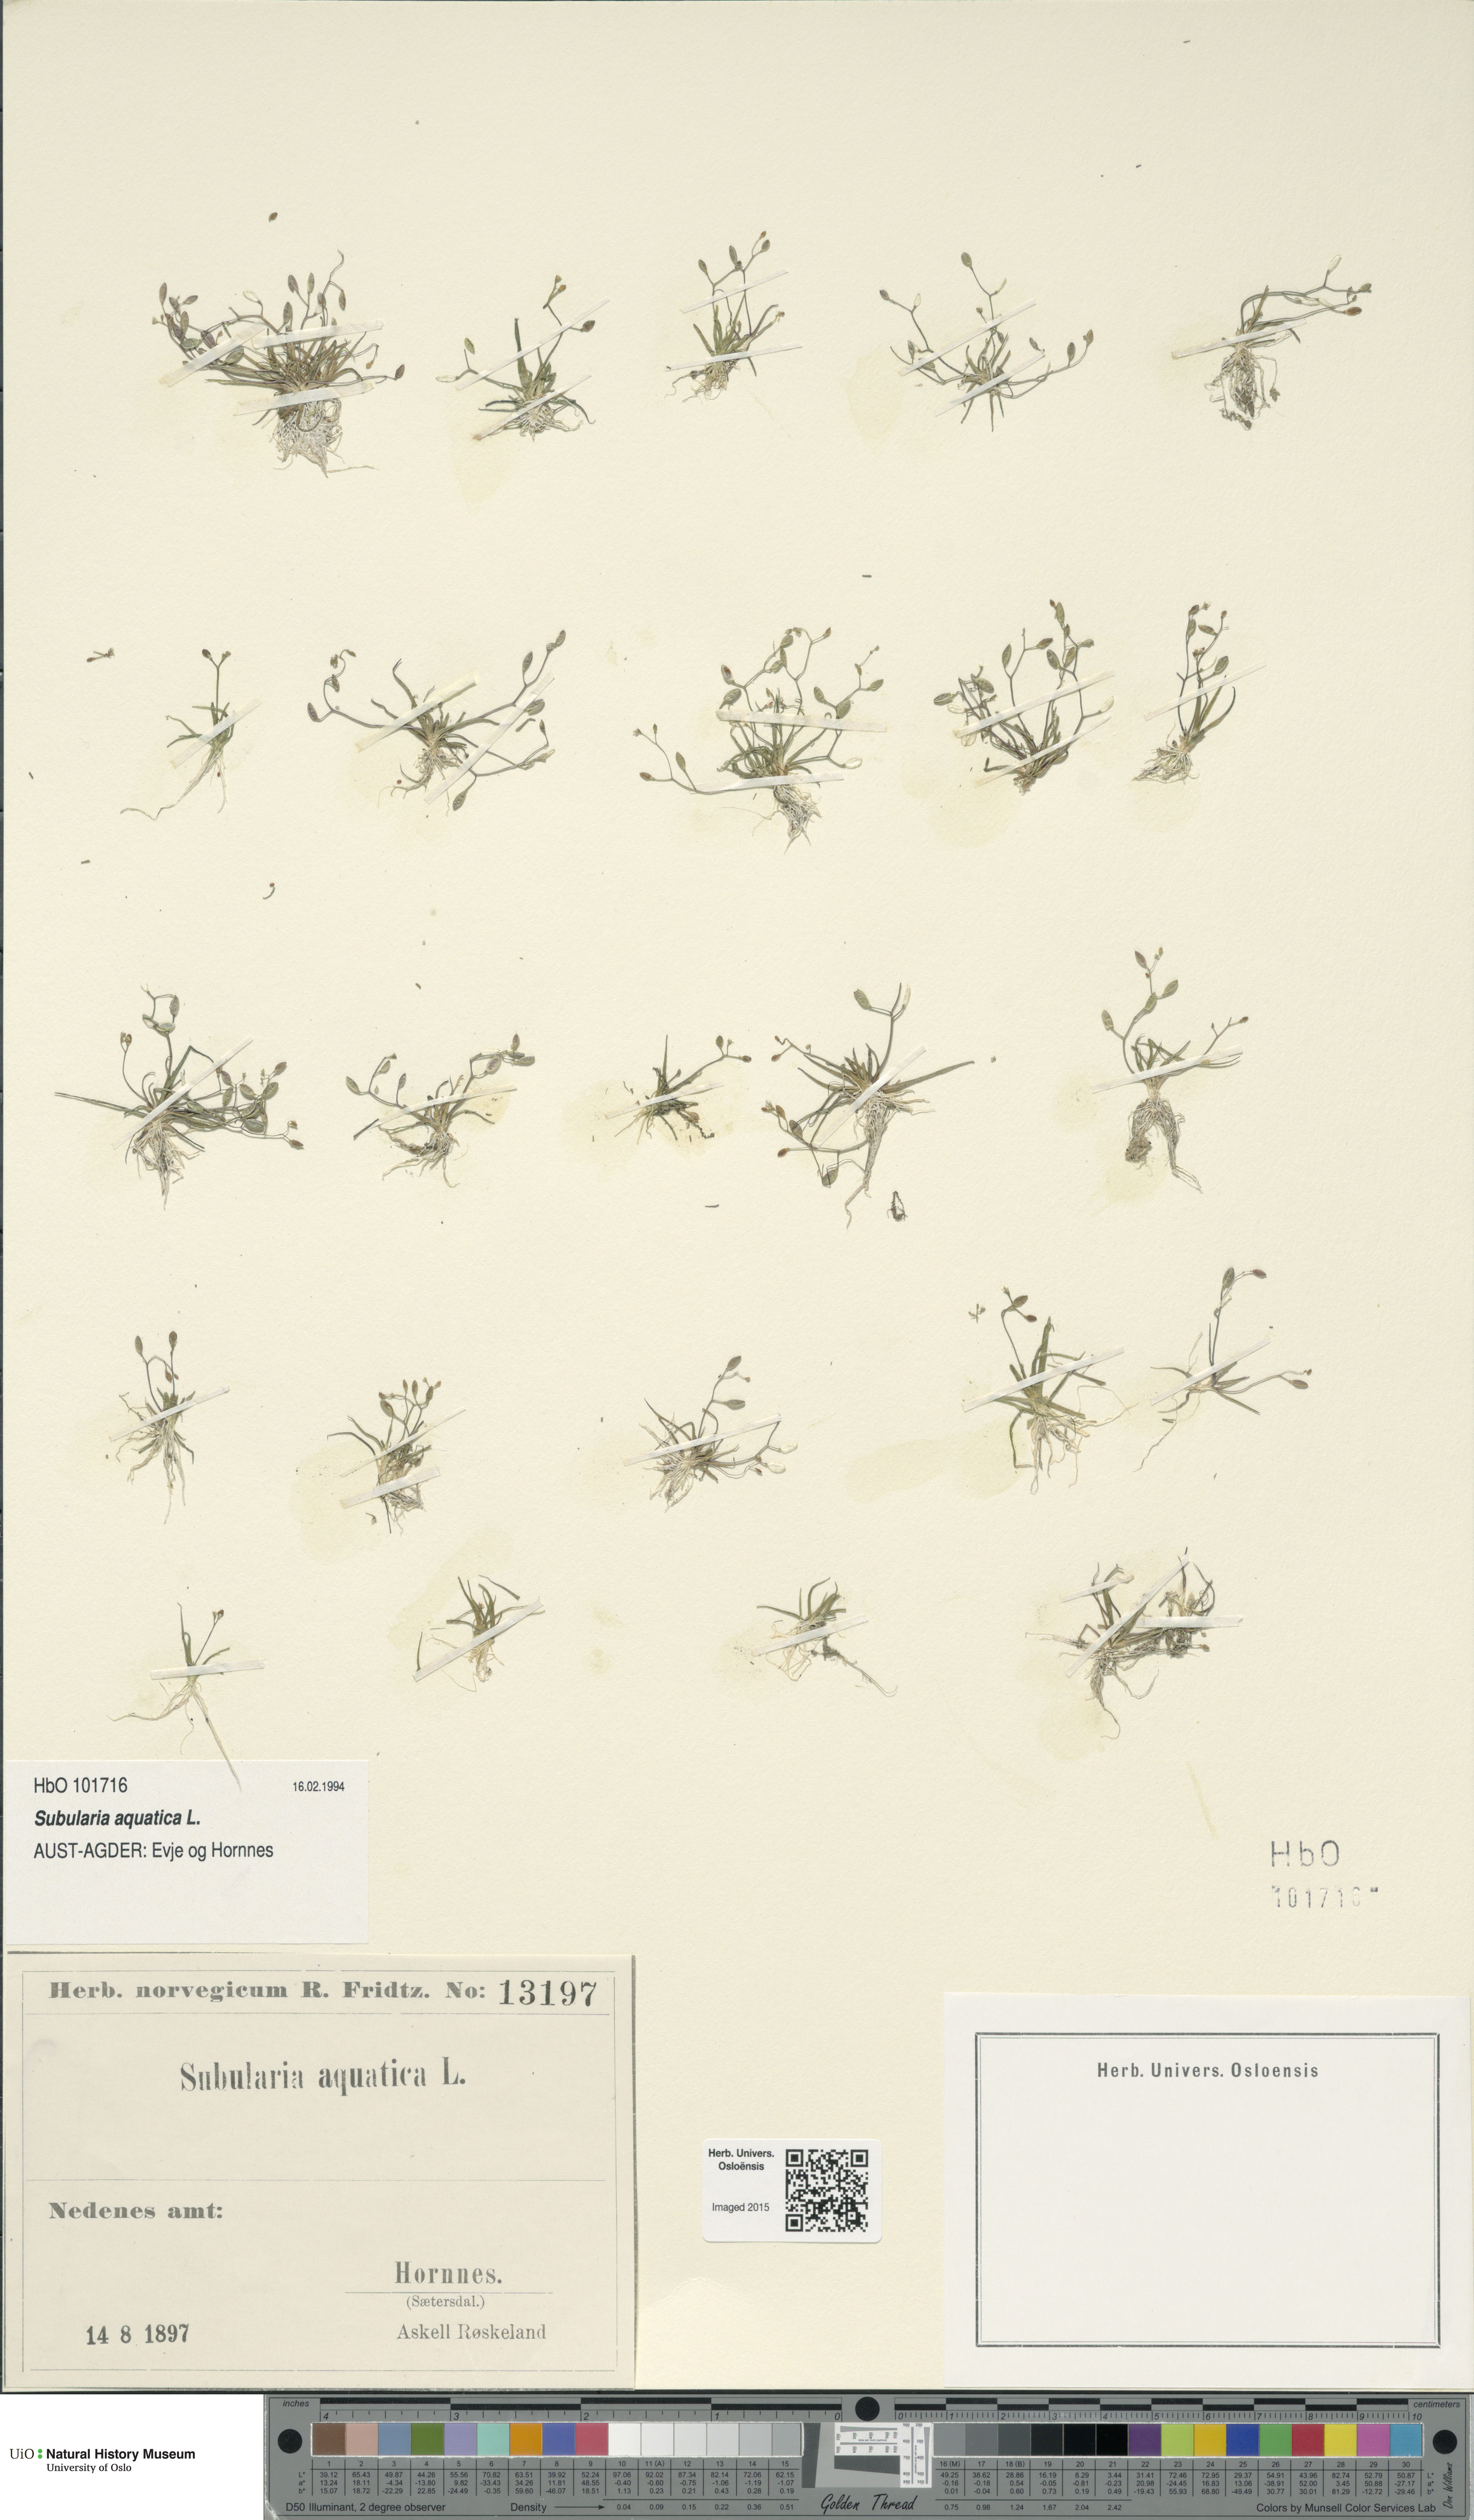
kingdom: Plantae
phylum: Tracheophyta
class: Magnoliopsida
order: Brassicales
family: Brassicaceae
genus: Subularia
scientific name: Subularia aquatica
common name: Awlwort
